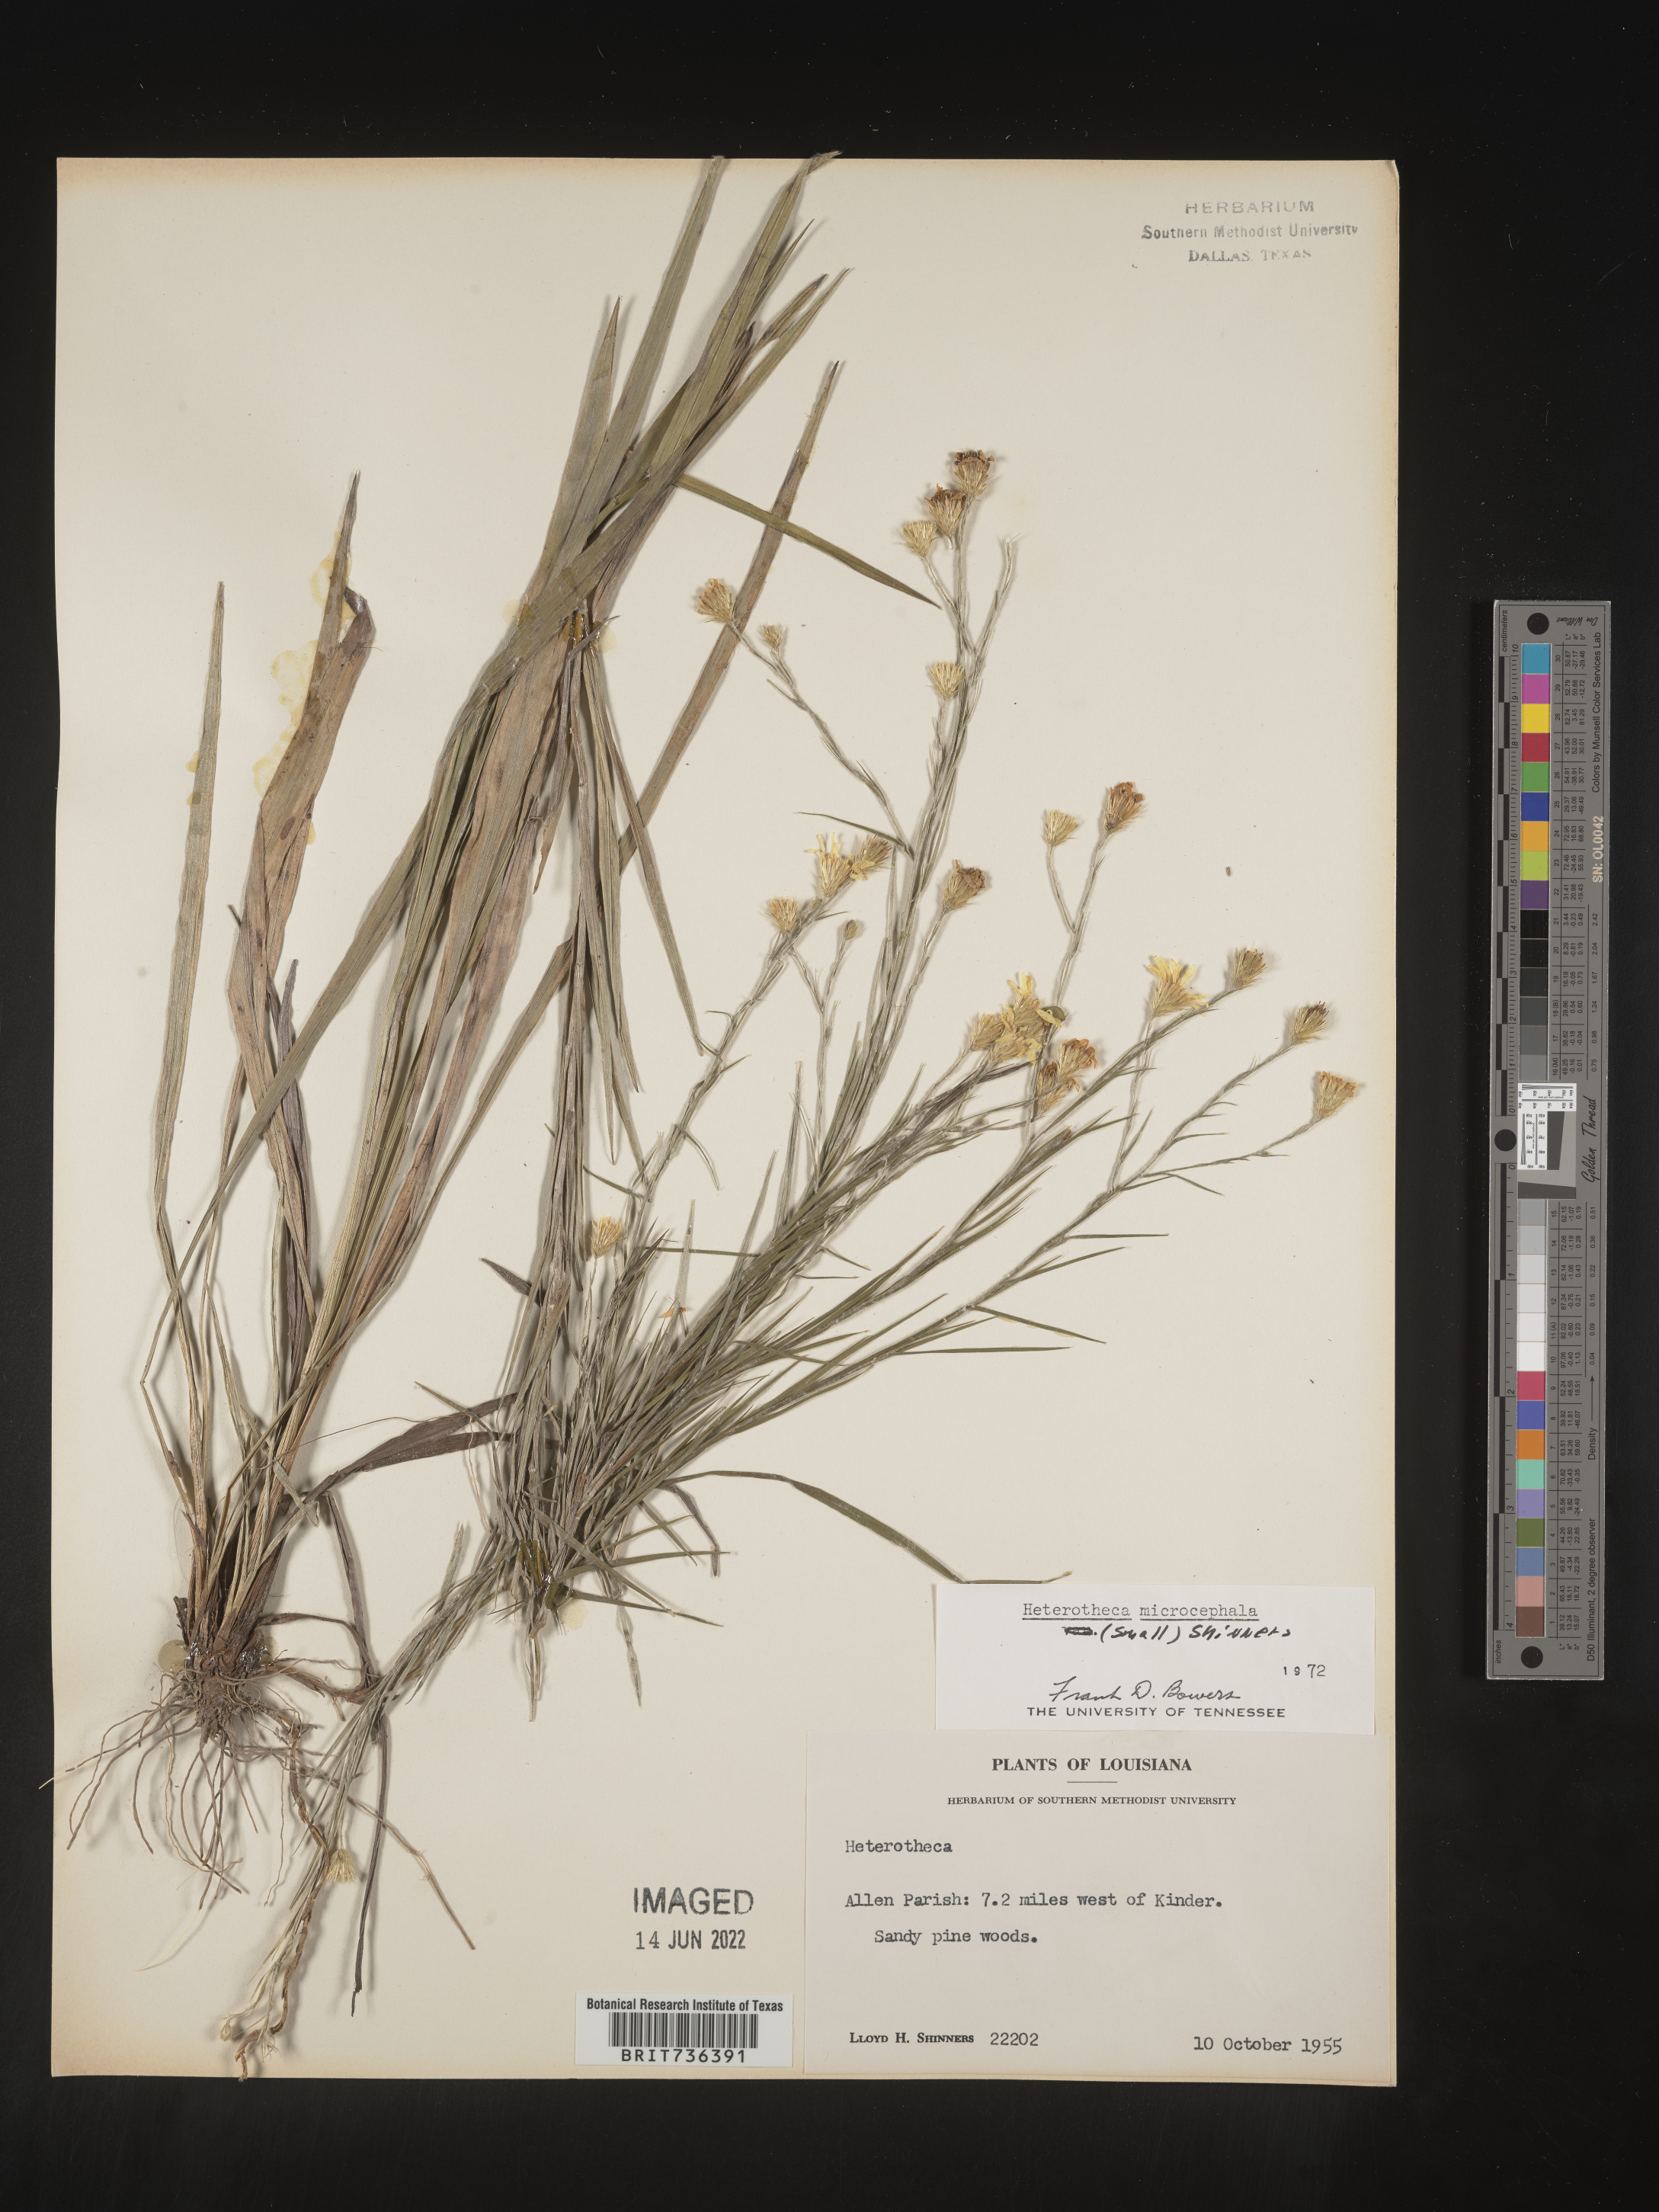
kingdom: Plantae
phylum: Tracheophyta
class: Magnoliopsida
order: Asterales
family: Asteraceae
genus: Pityopsis
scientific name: Pityopsis tenuifolia
